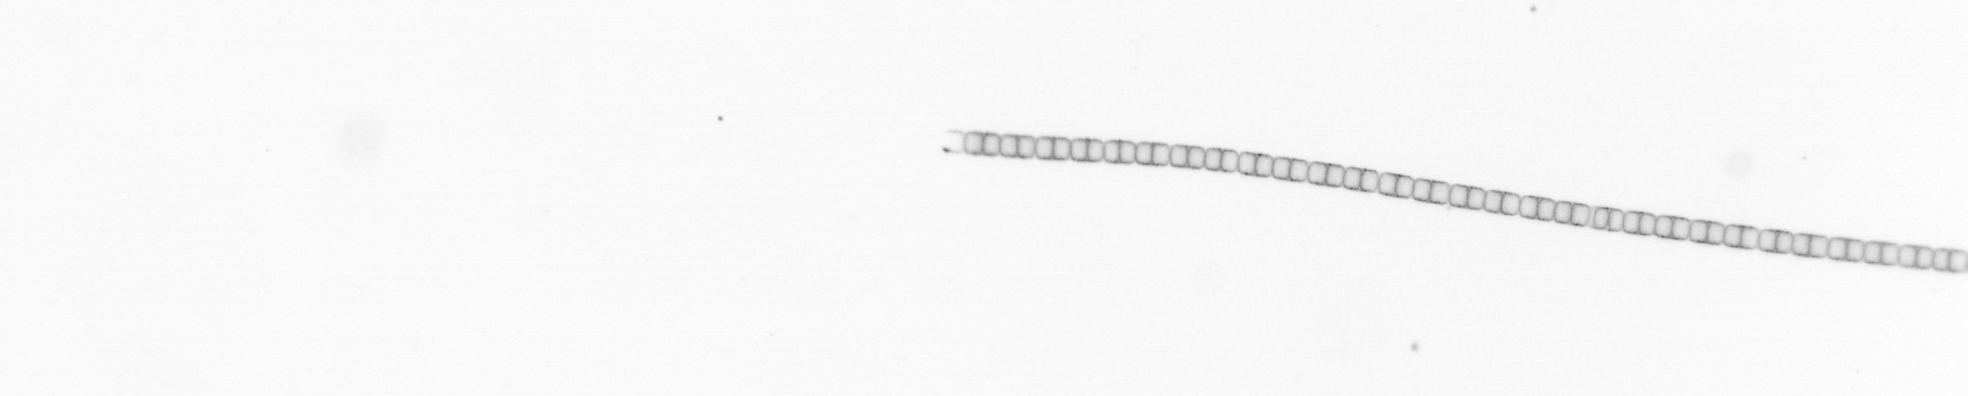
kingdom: Chromista
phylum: Ochrophyta
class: Bacillariophyceae
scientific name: Bacillariophyceae
